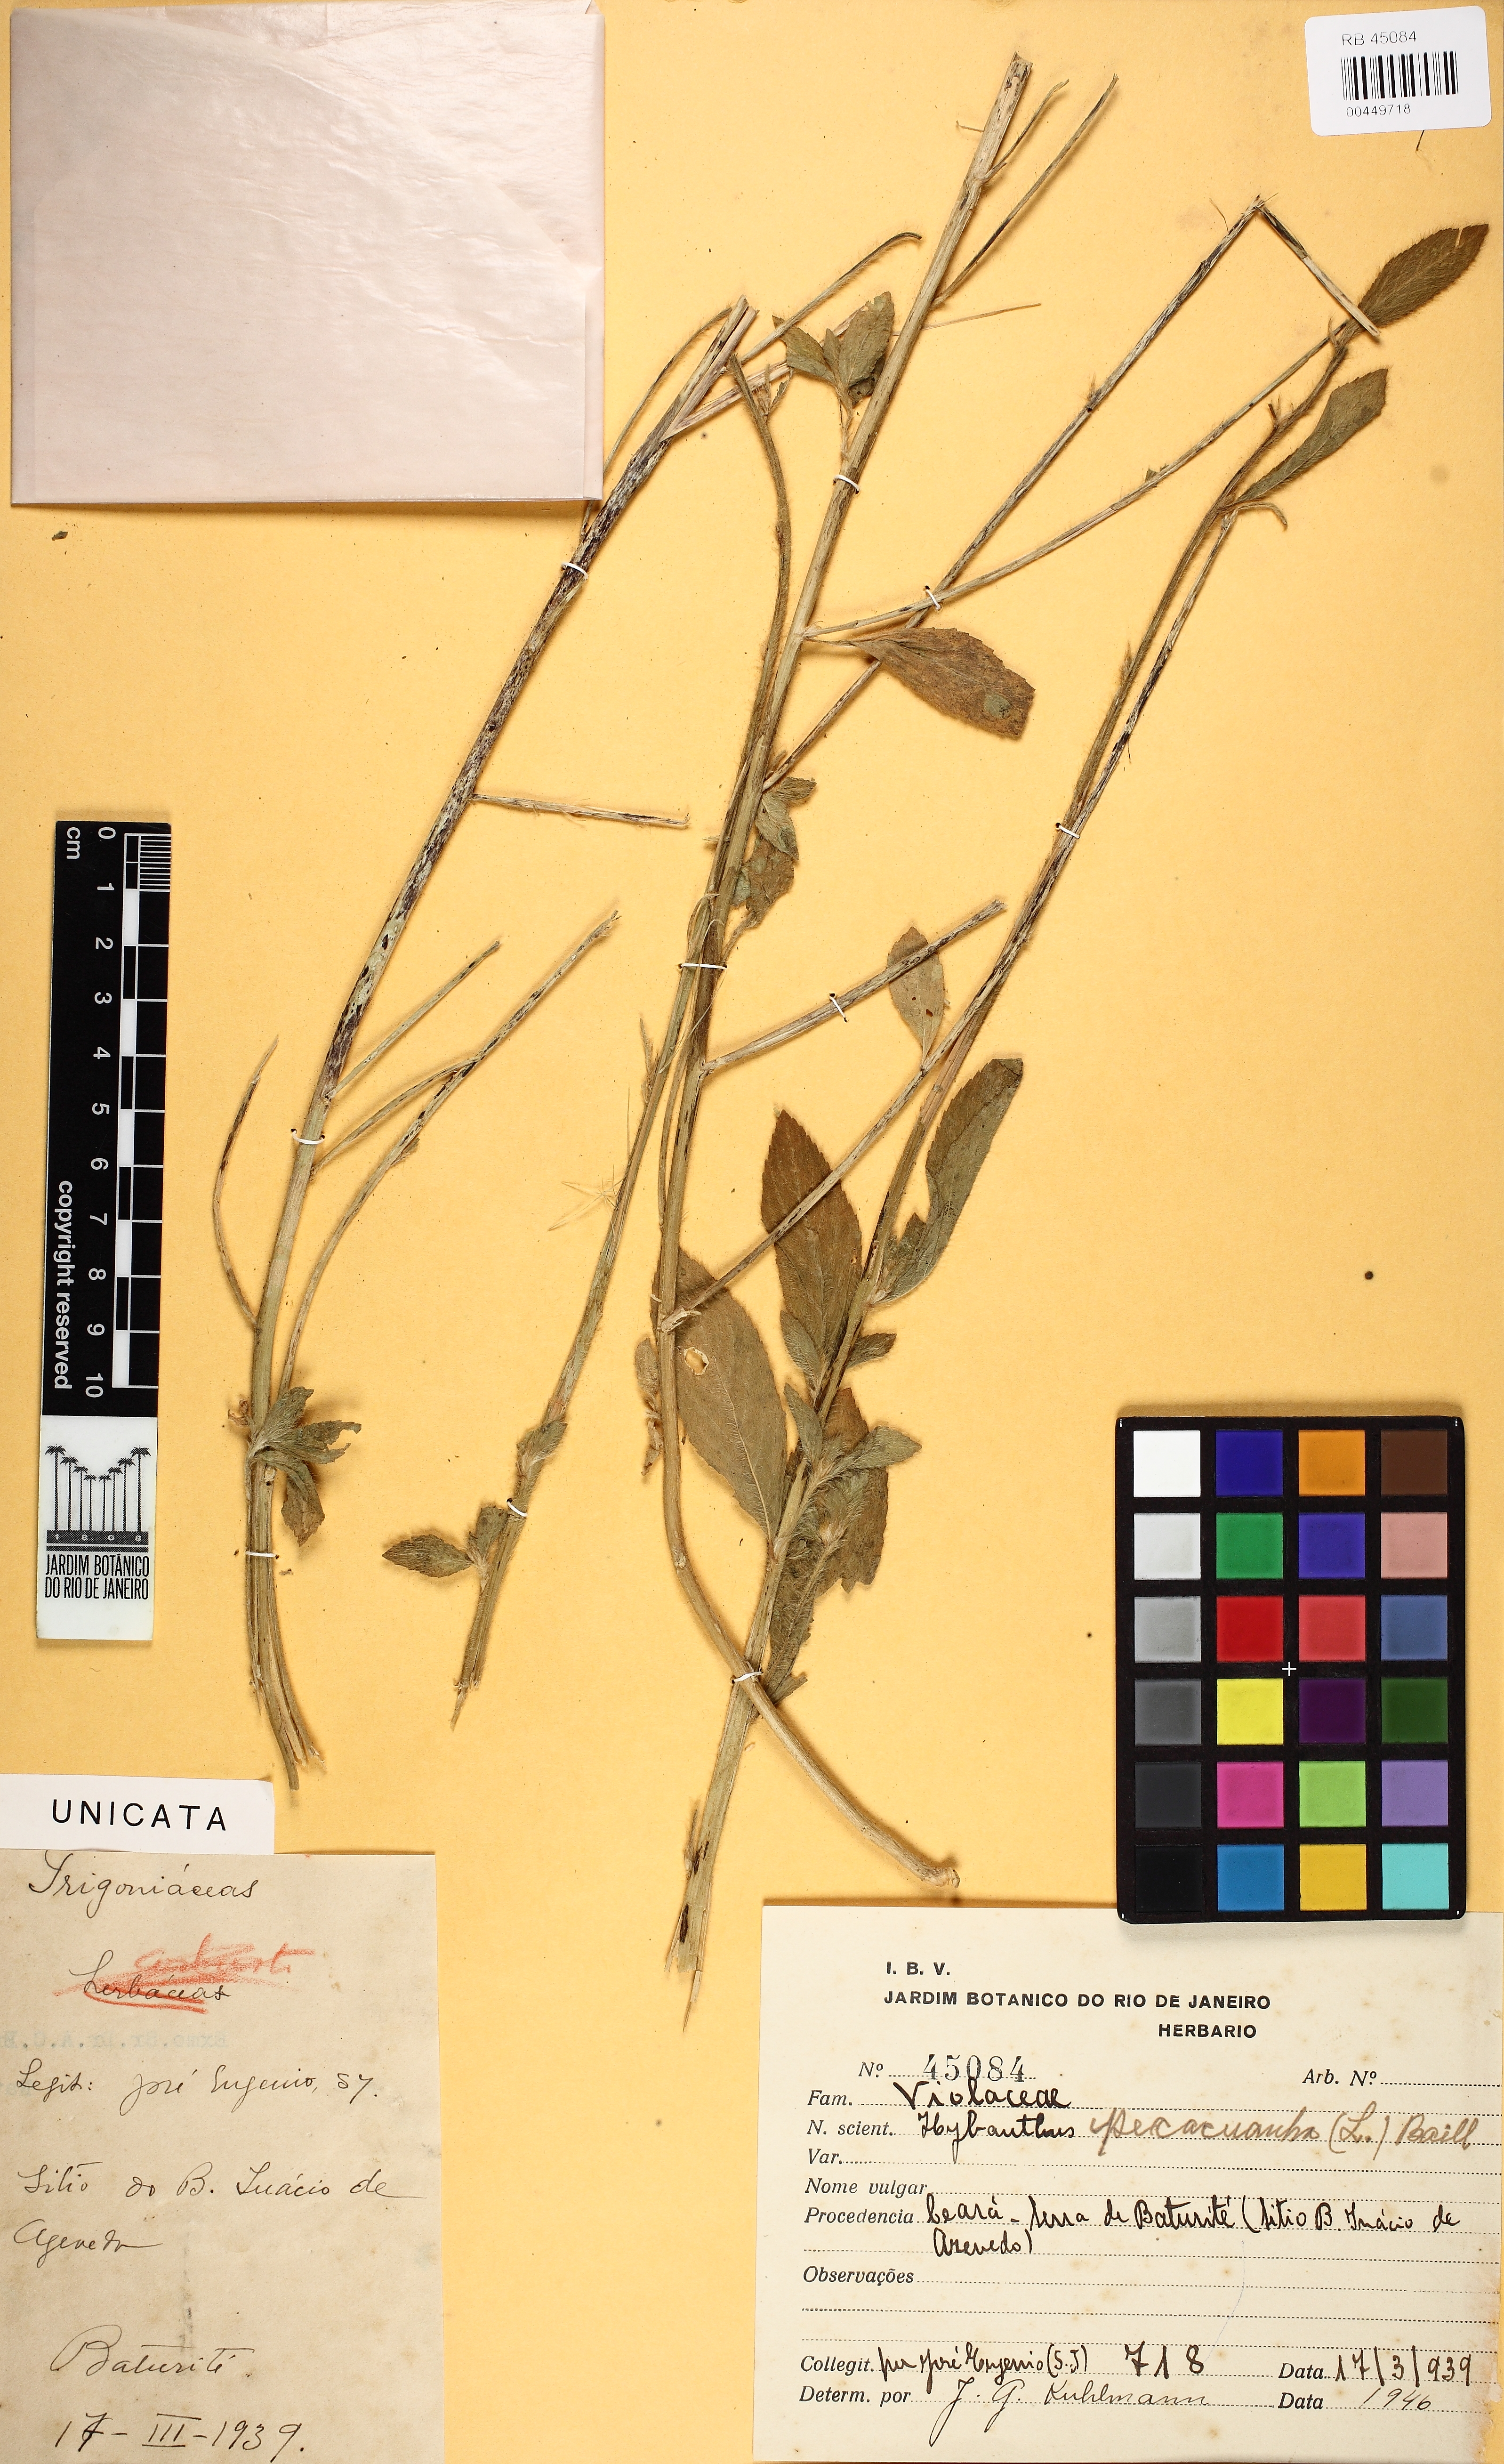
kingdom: Plantae
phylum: Tracheophyta
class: Magnoliopsida
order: Malpighiales
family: Violaceae
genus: Pombalia
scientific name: Pombalia calceolaria
